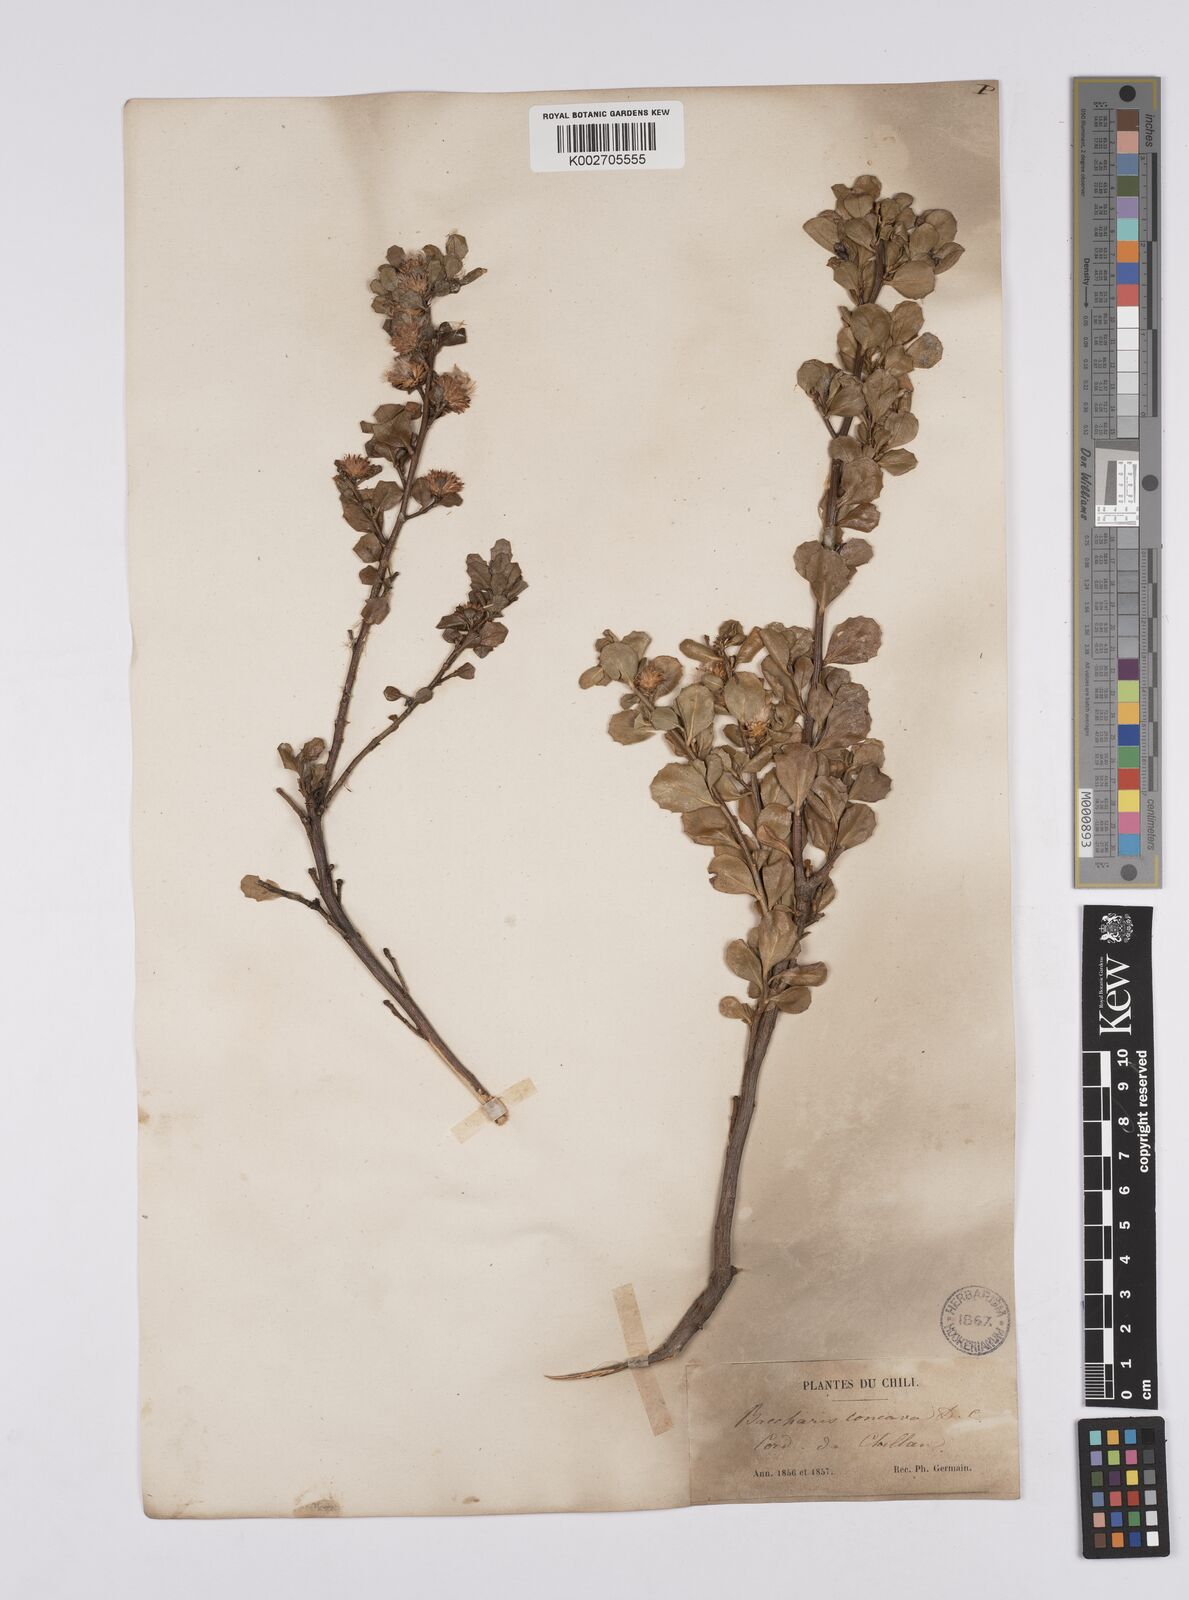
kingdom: Plantae
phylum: Tracheophyta
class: Magnoliopsida
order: Asterales
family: Asteraceae
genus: Baccharis
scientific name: Baccharis concava
